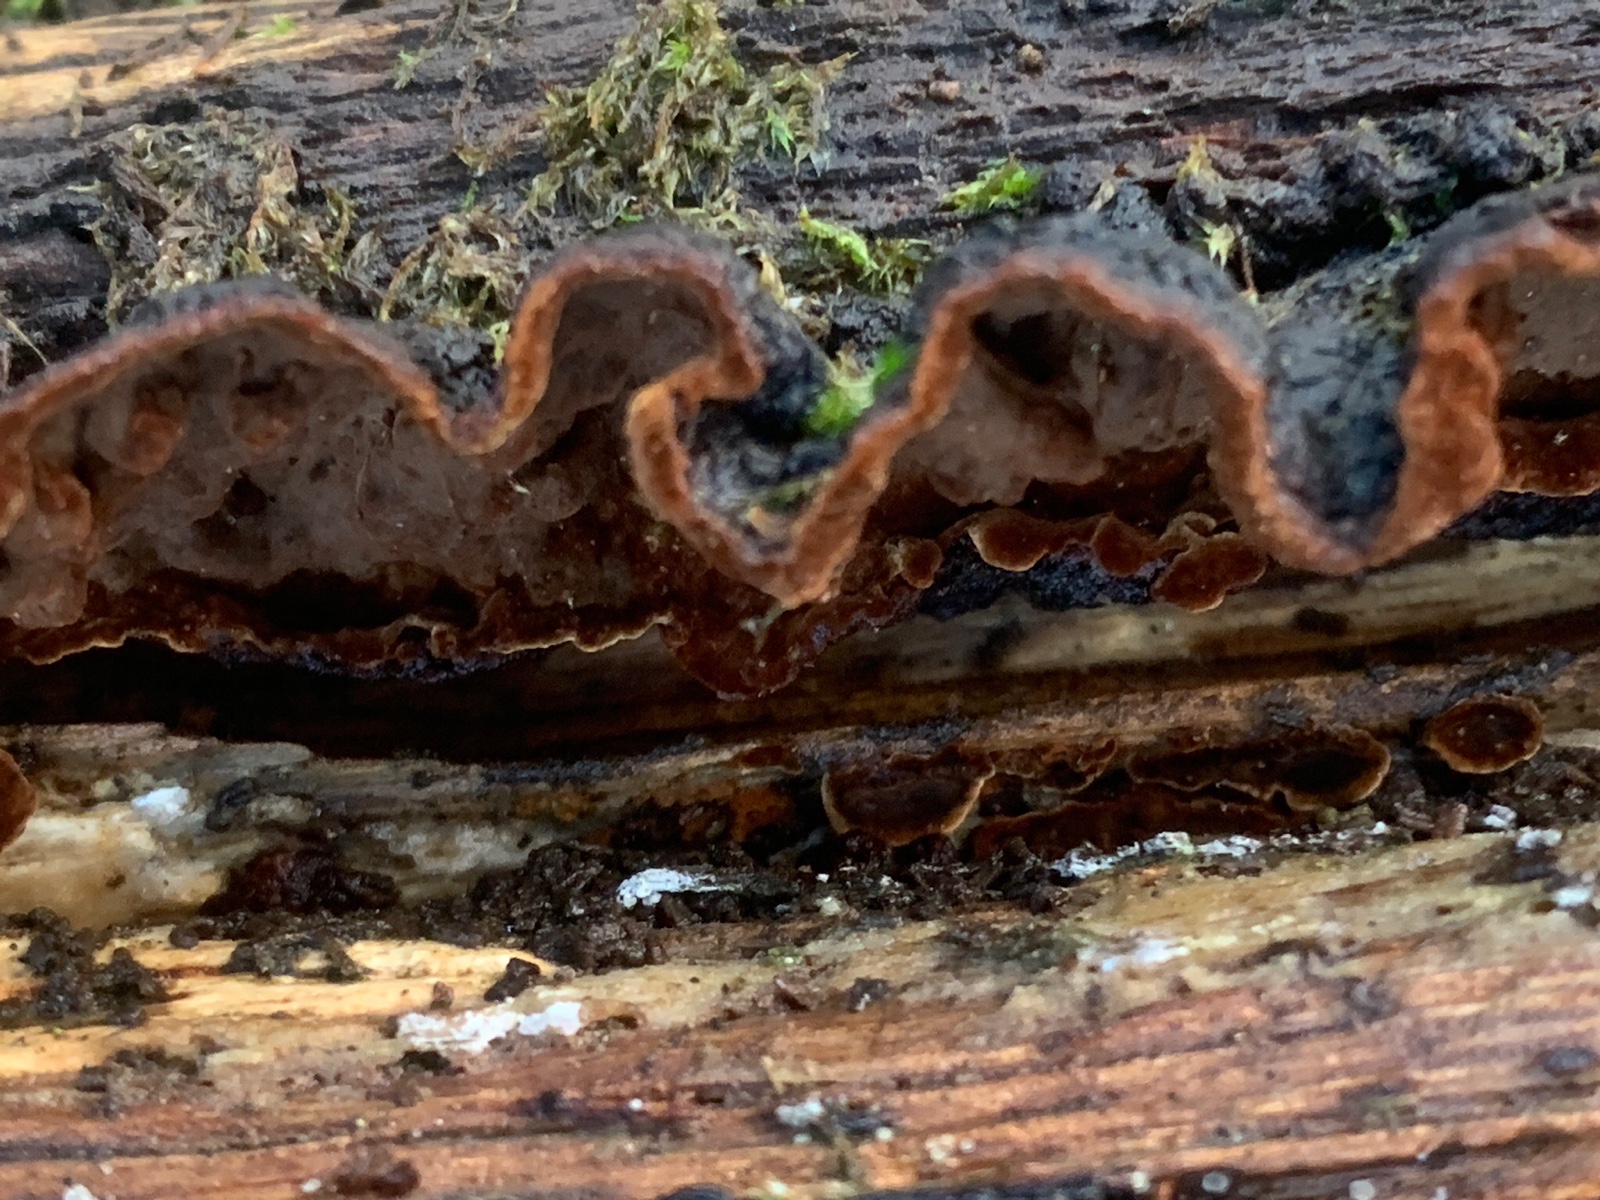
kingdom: Fungi
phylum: Basidiomycota
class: Agaricomycetes
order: Hymenochaetales
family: Hymenochaetaceae
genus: Hymenochaete
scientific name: Hymenochaete rubiginosa
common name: stiv ruslædersvamp
